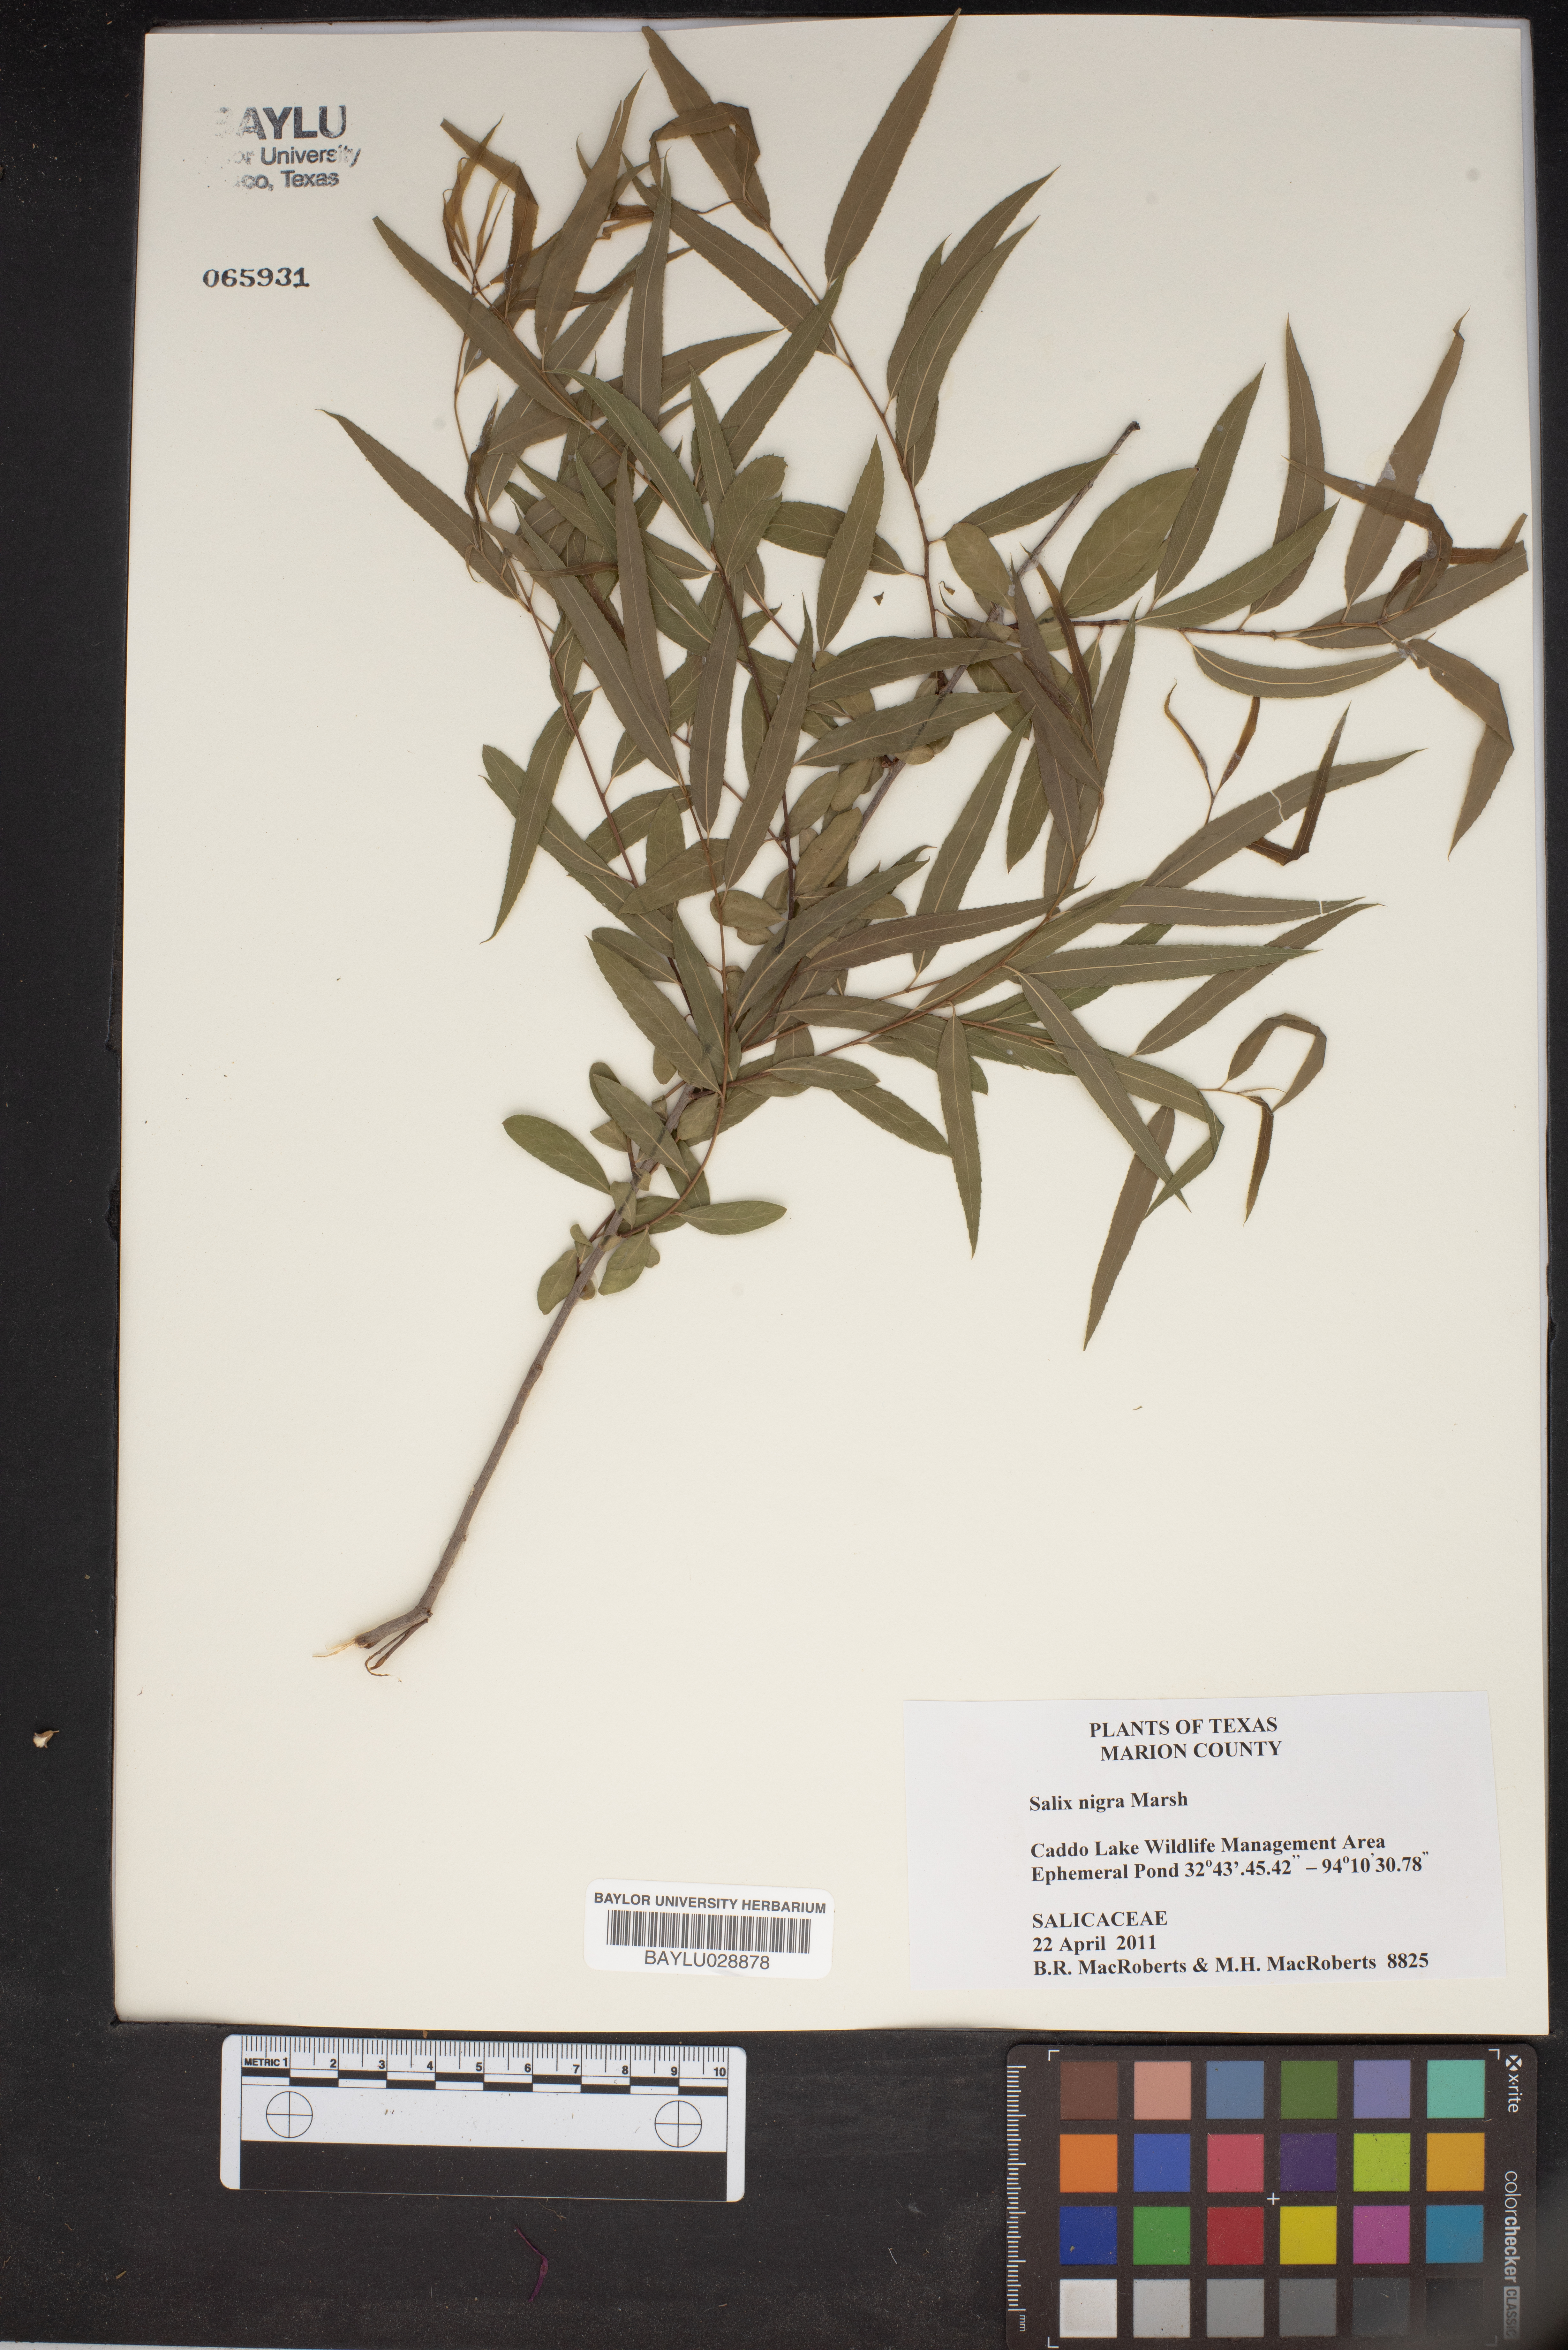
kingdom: Plantae
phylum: Tracheophyta
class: Magnoliopsida
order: Malpighiales
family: Salicaceae
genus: Salix
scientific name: Salix nigra
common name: Black willow
